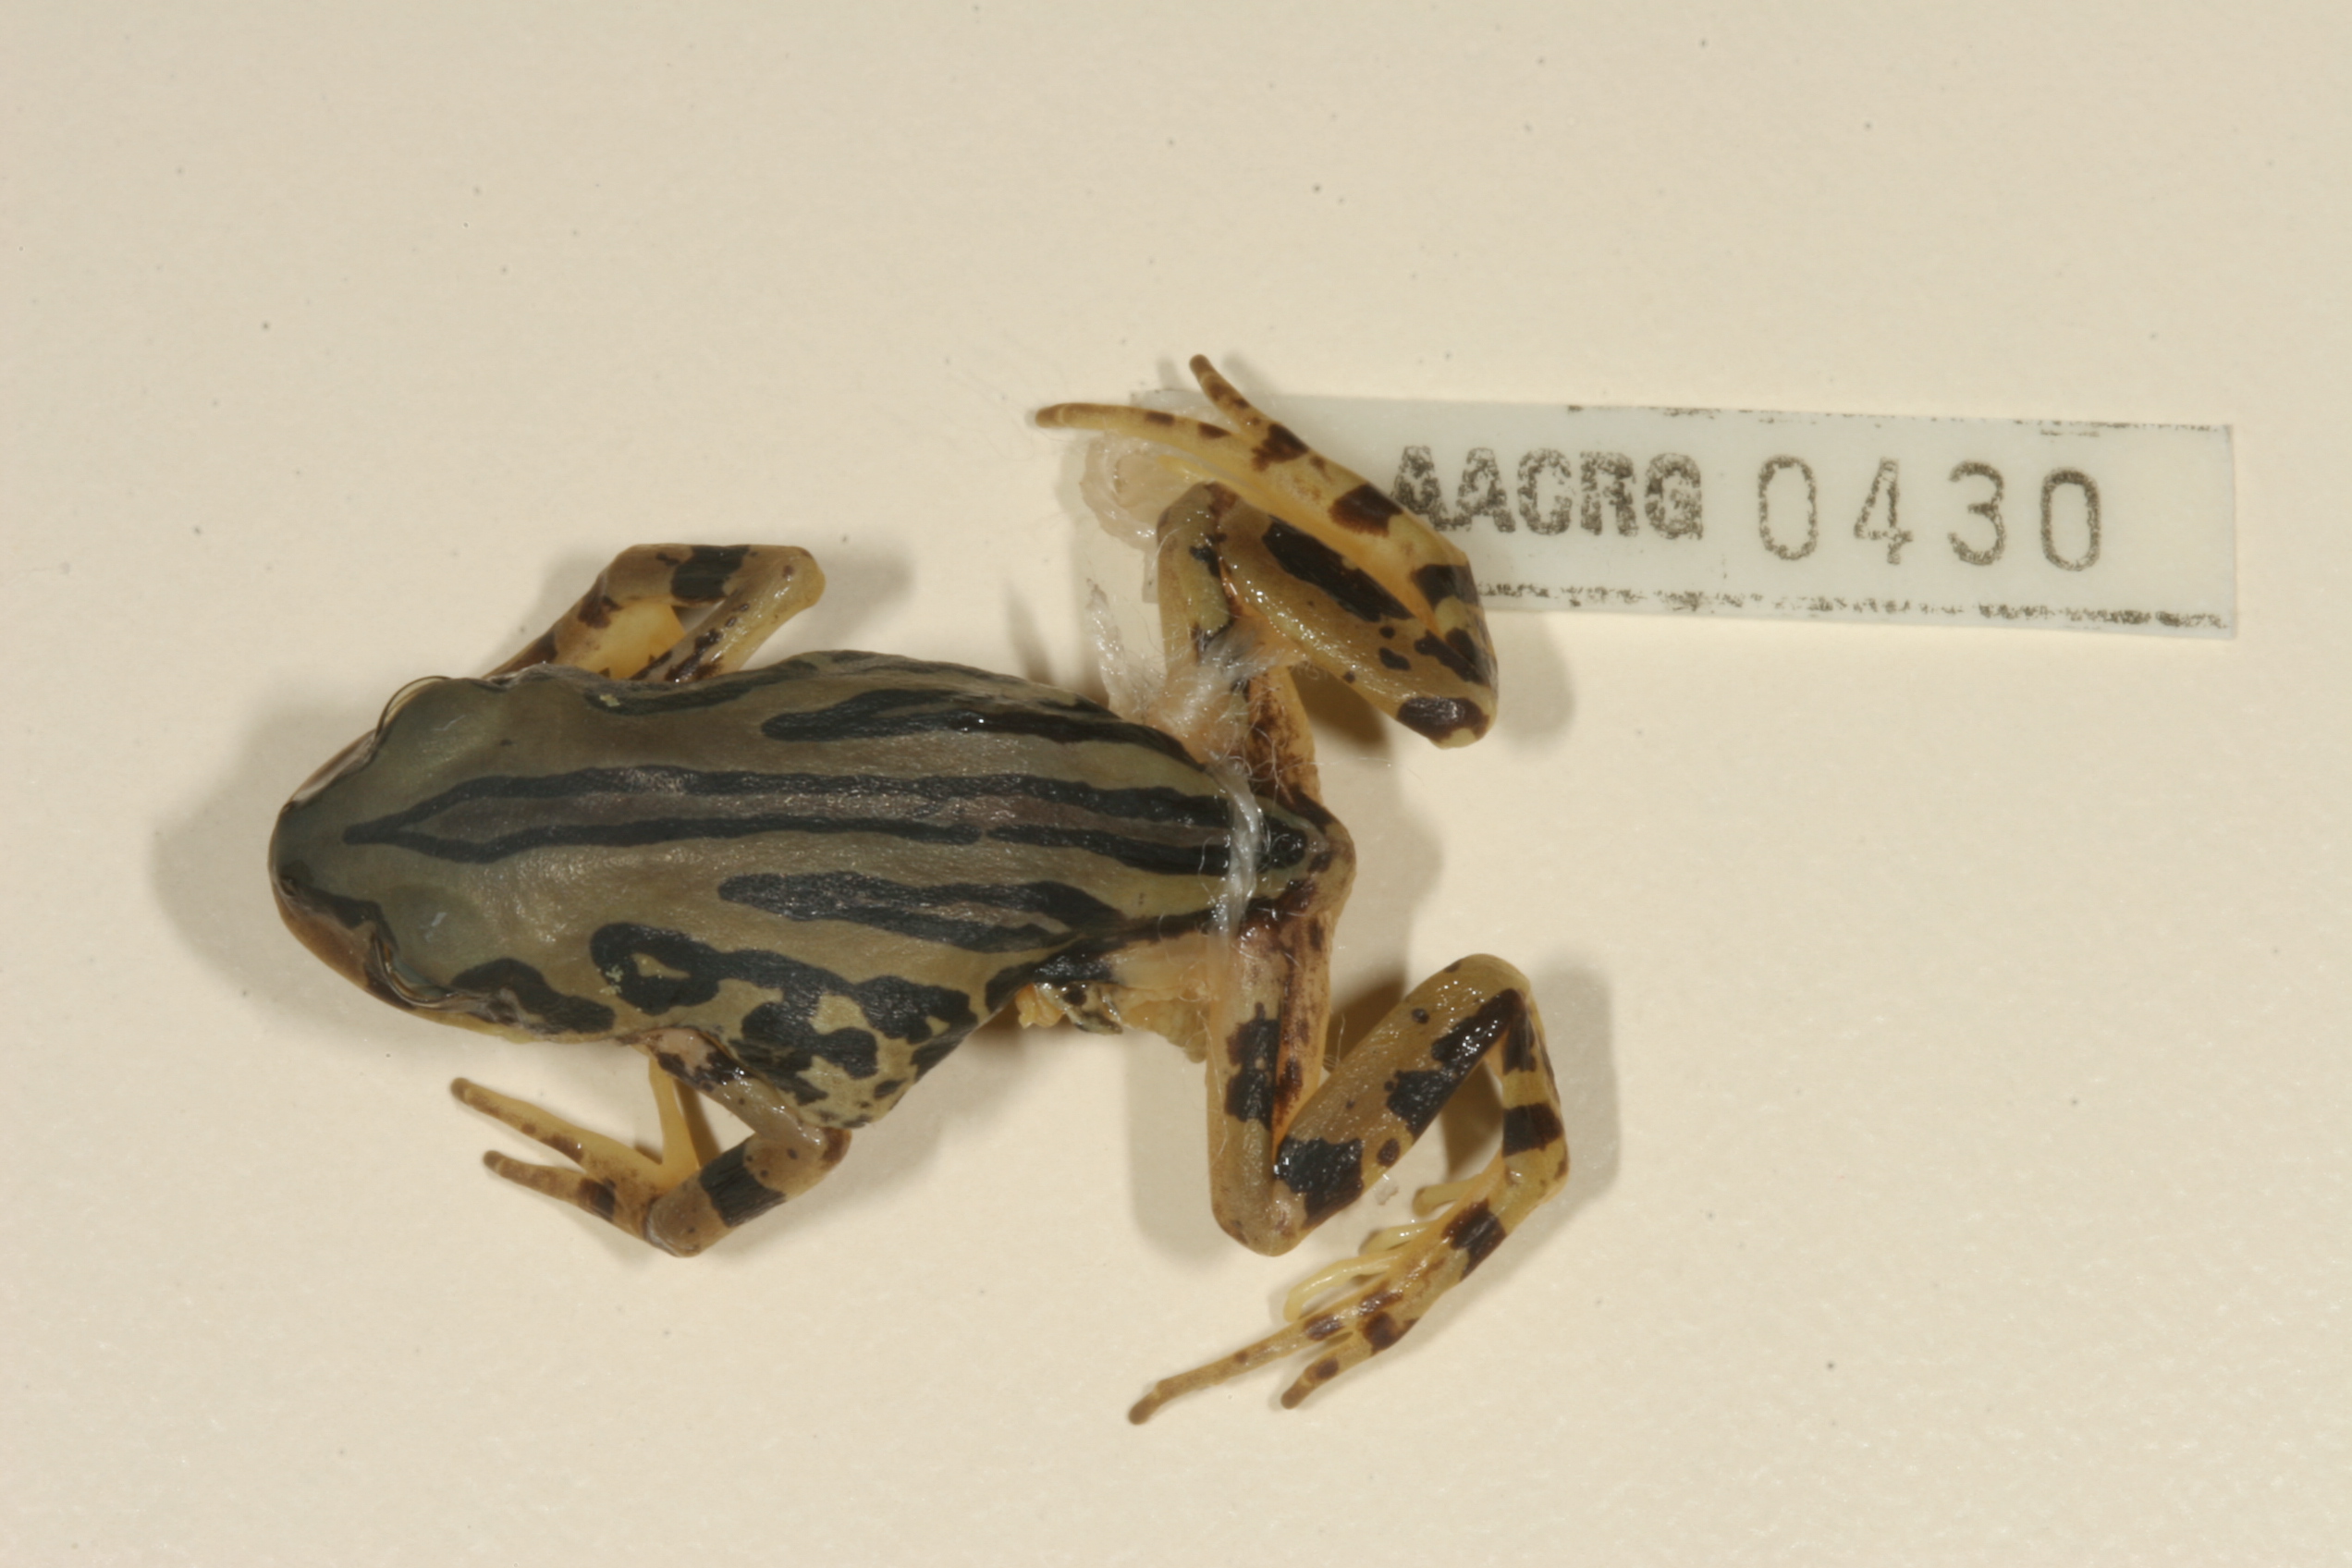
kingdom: Animalia
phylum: Chordata
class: Amphibia
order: Anura
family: Hyperoliidae
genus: Semnodactylus
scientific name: Semnodactylus wealii
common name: Weal's frog
